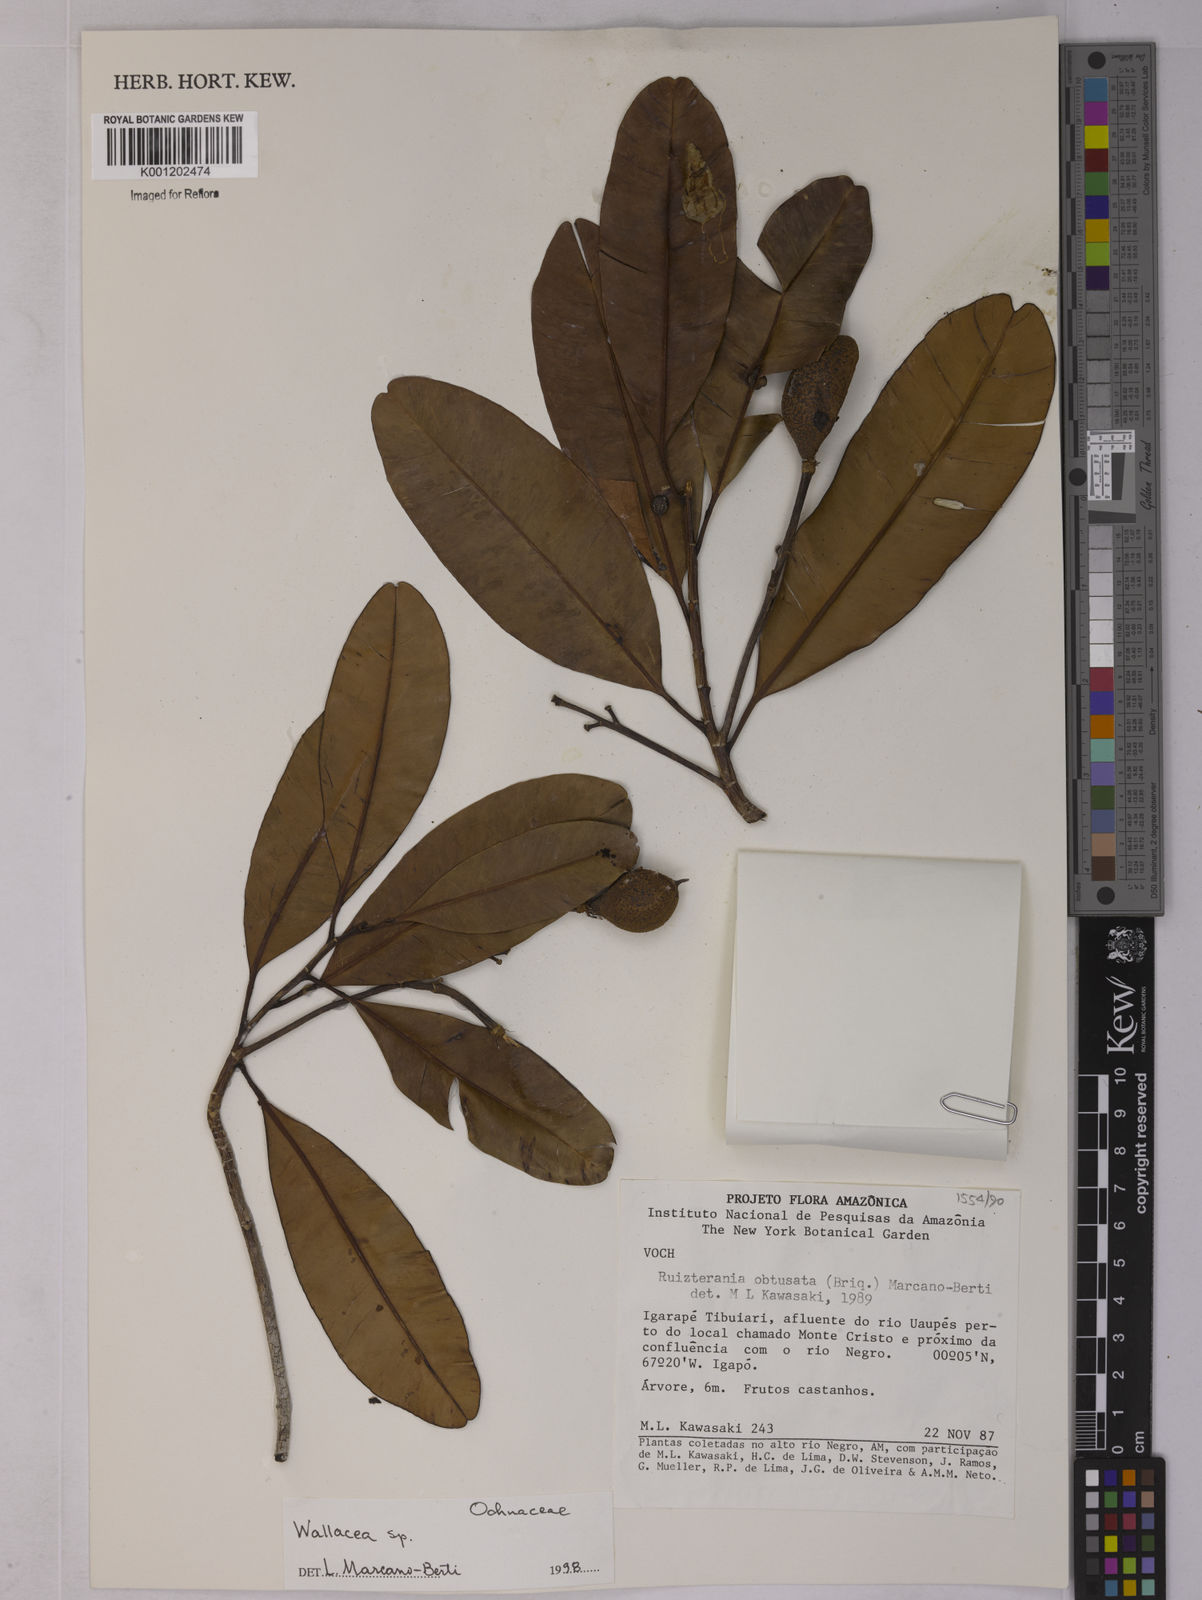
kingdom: Plantae
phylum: Tracheophyta
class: Magnoliopsida
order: Malpighiales
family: Ochnaceae
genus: Wallacea
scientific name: Wallacea insignis
